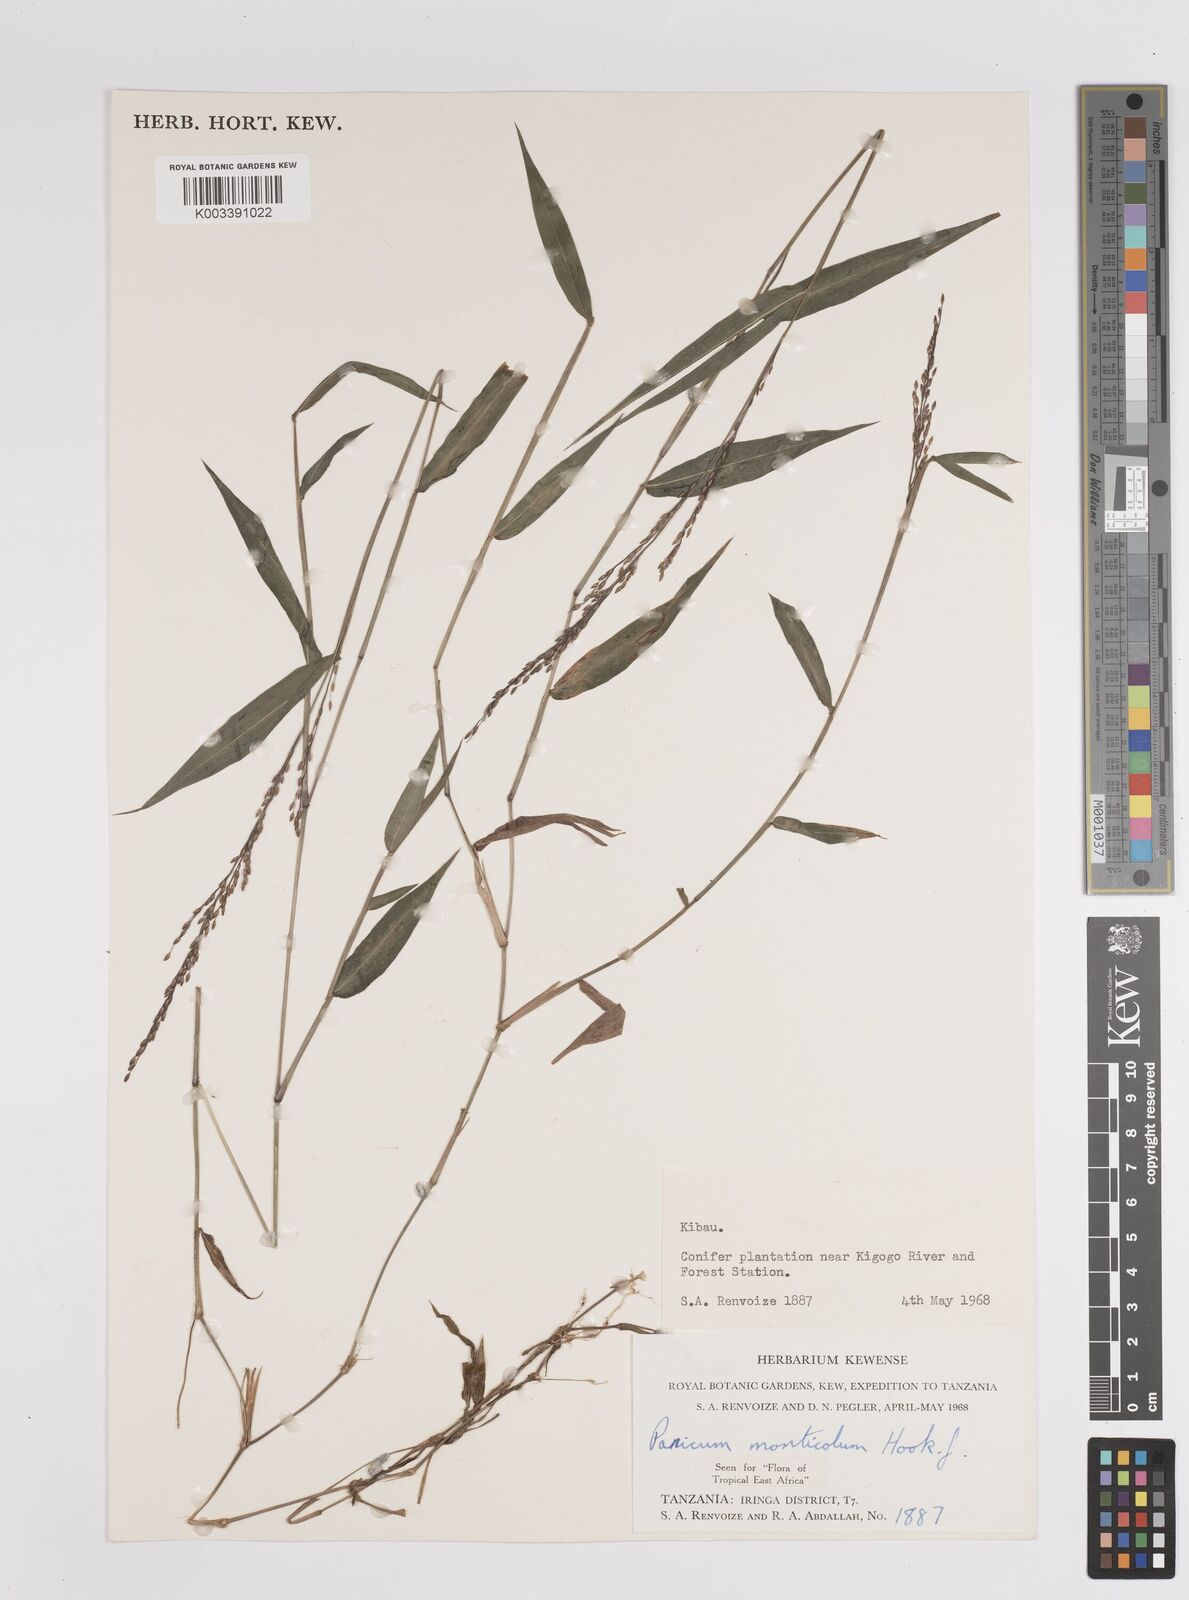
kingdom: Plantae
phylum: Tracheophyta
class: Liliopsida
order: Poales
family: Poaceae
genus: Panicum
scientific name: Panicum monticola
